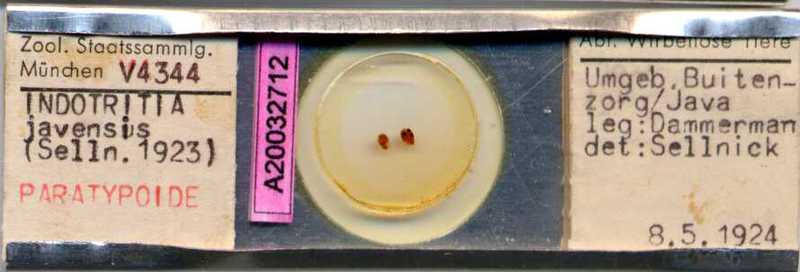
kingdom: Animalia
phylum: Arthropoda
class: Arachnida
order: Sarcoptiformes
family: Oribotritiidae
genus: Indotritia
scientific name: Indotritia javensis
